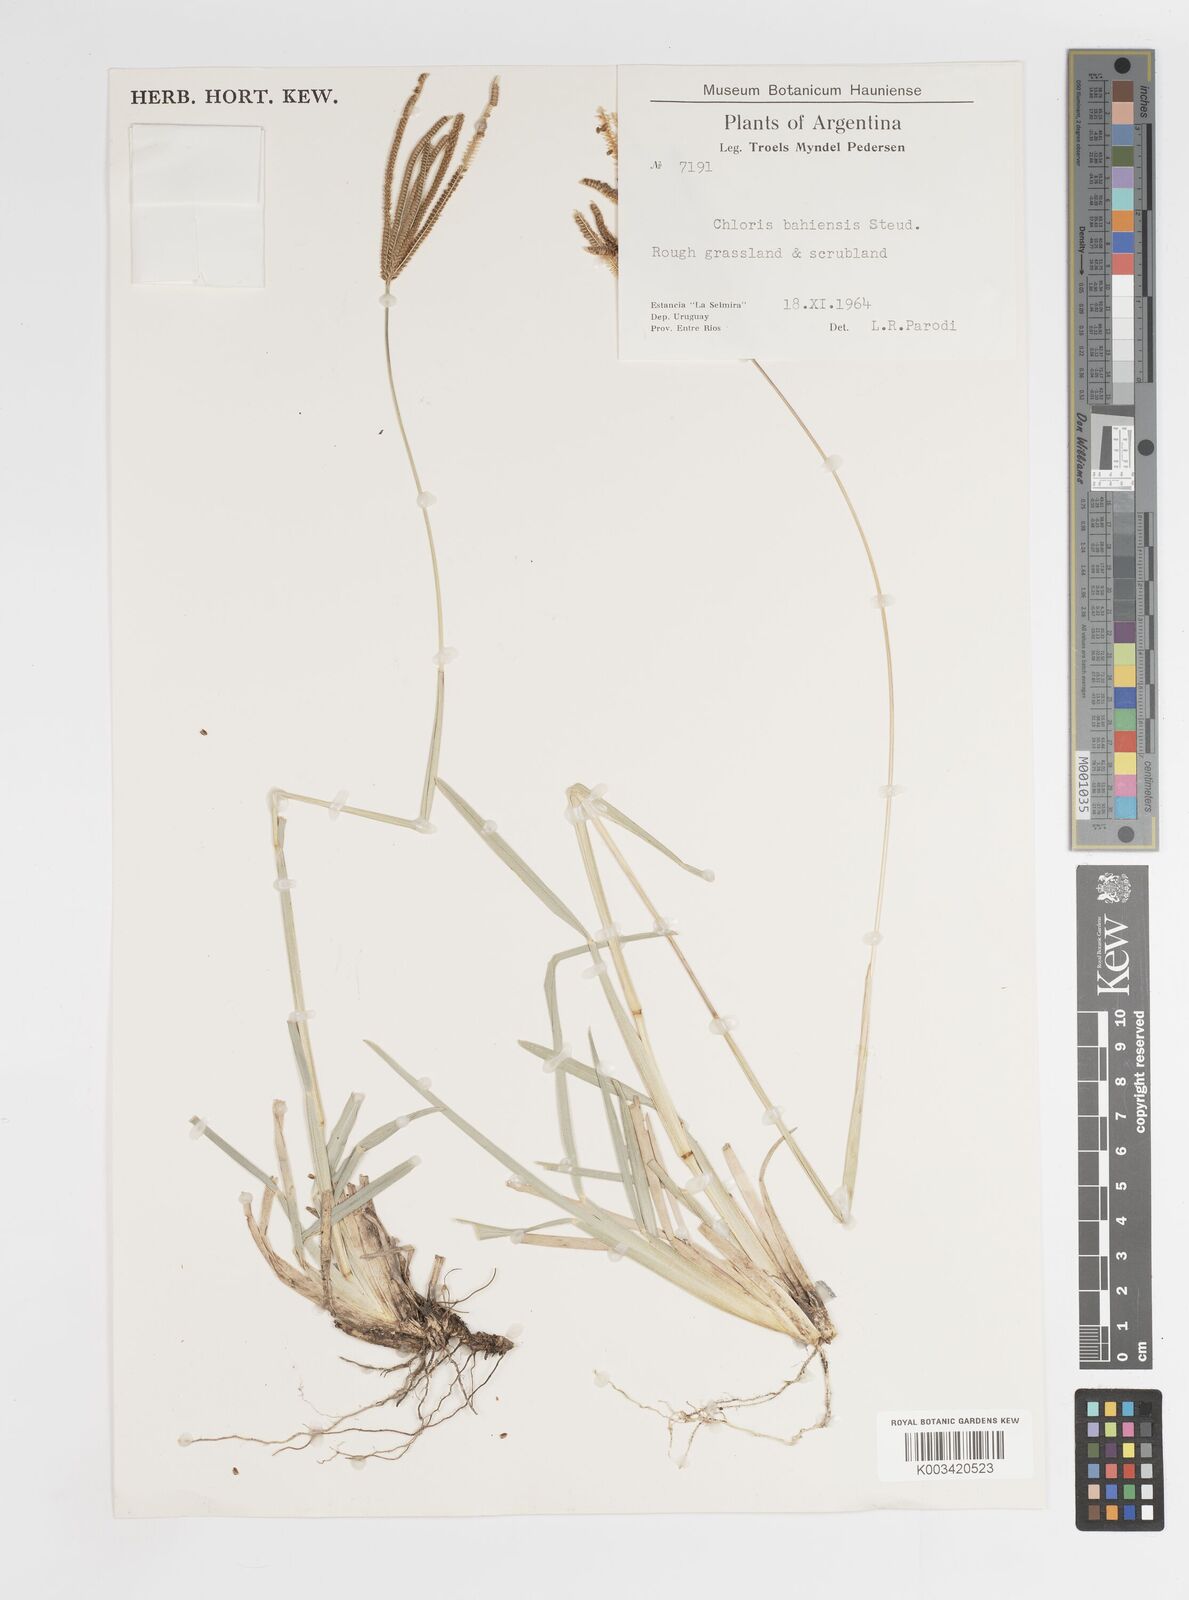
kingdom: Plantae
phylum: Tracheophyta
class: Liliopsida
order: Poales
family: Poaceae
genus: Eustachys
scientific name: Eustachys bahiensis
